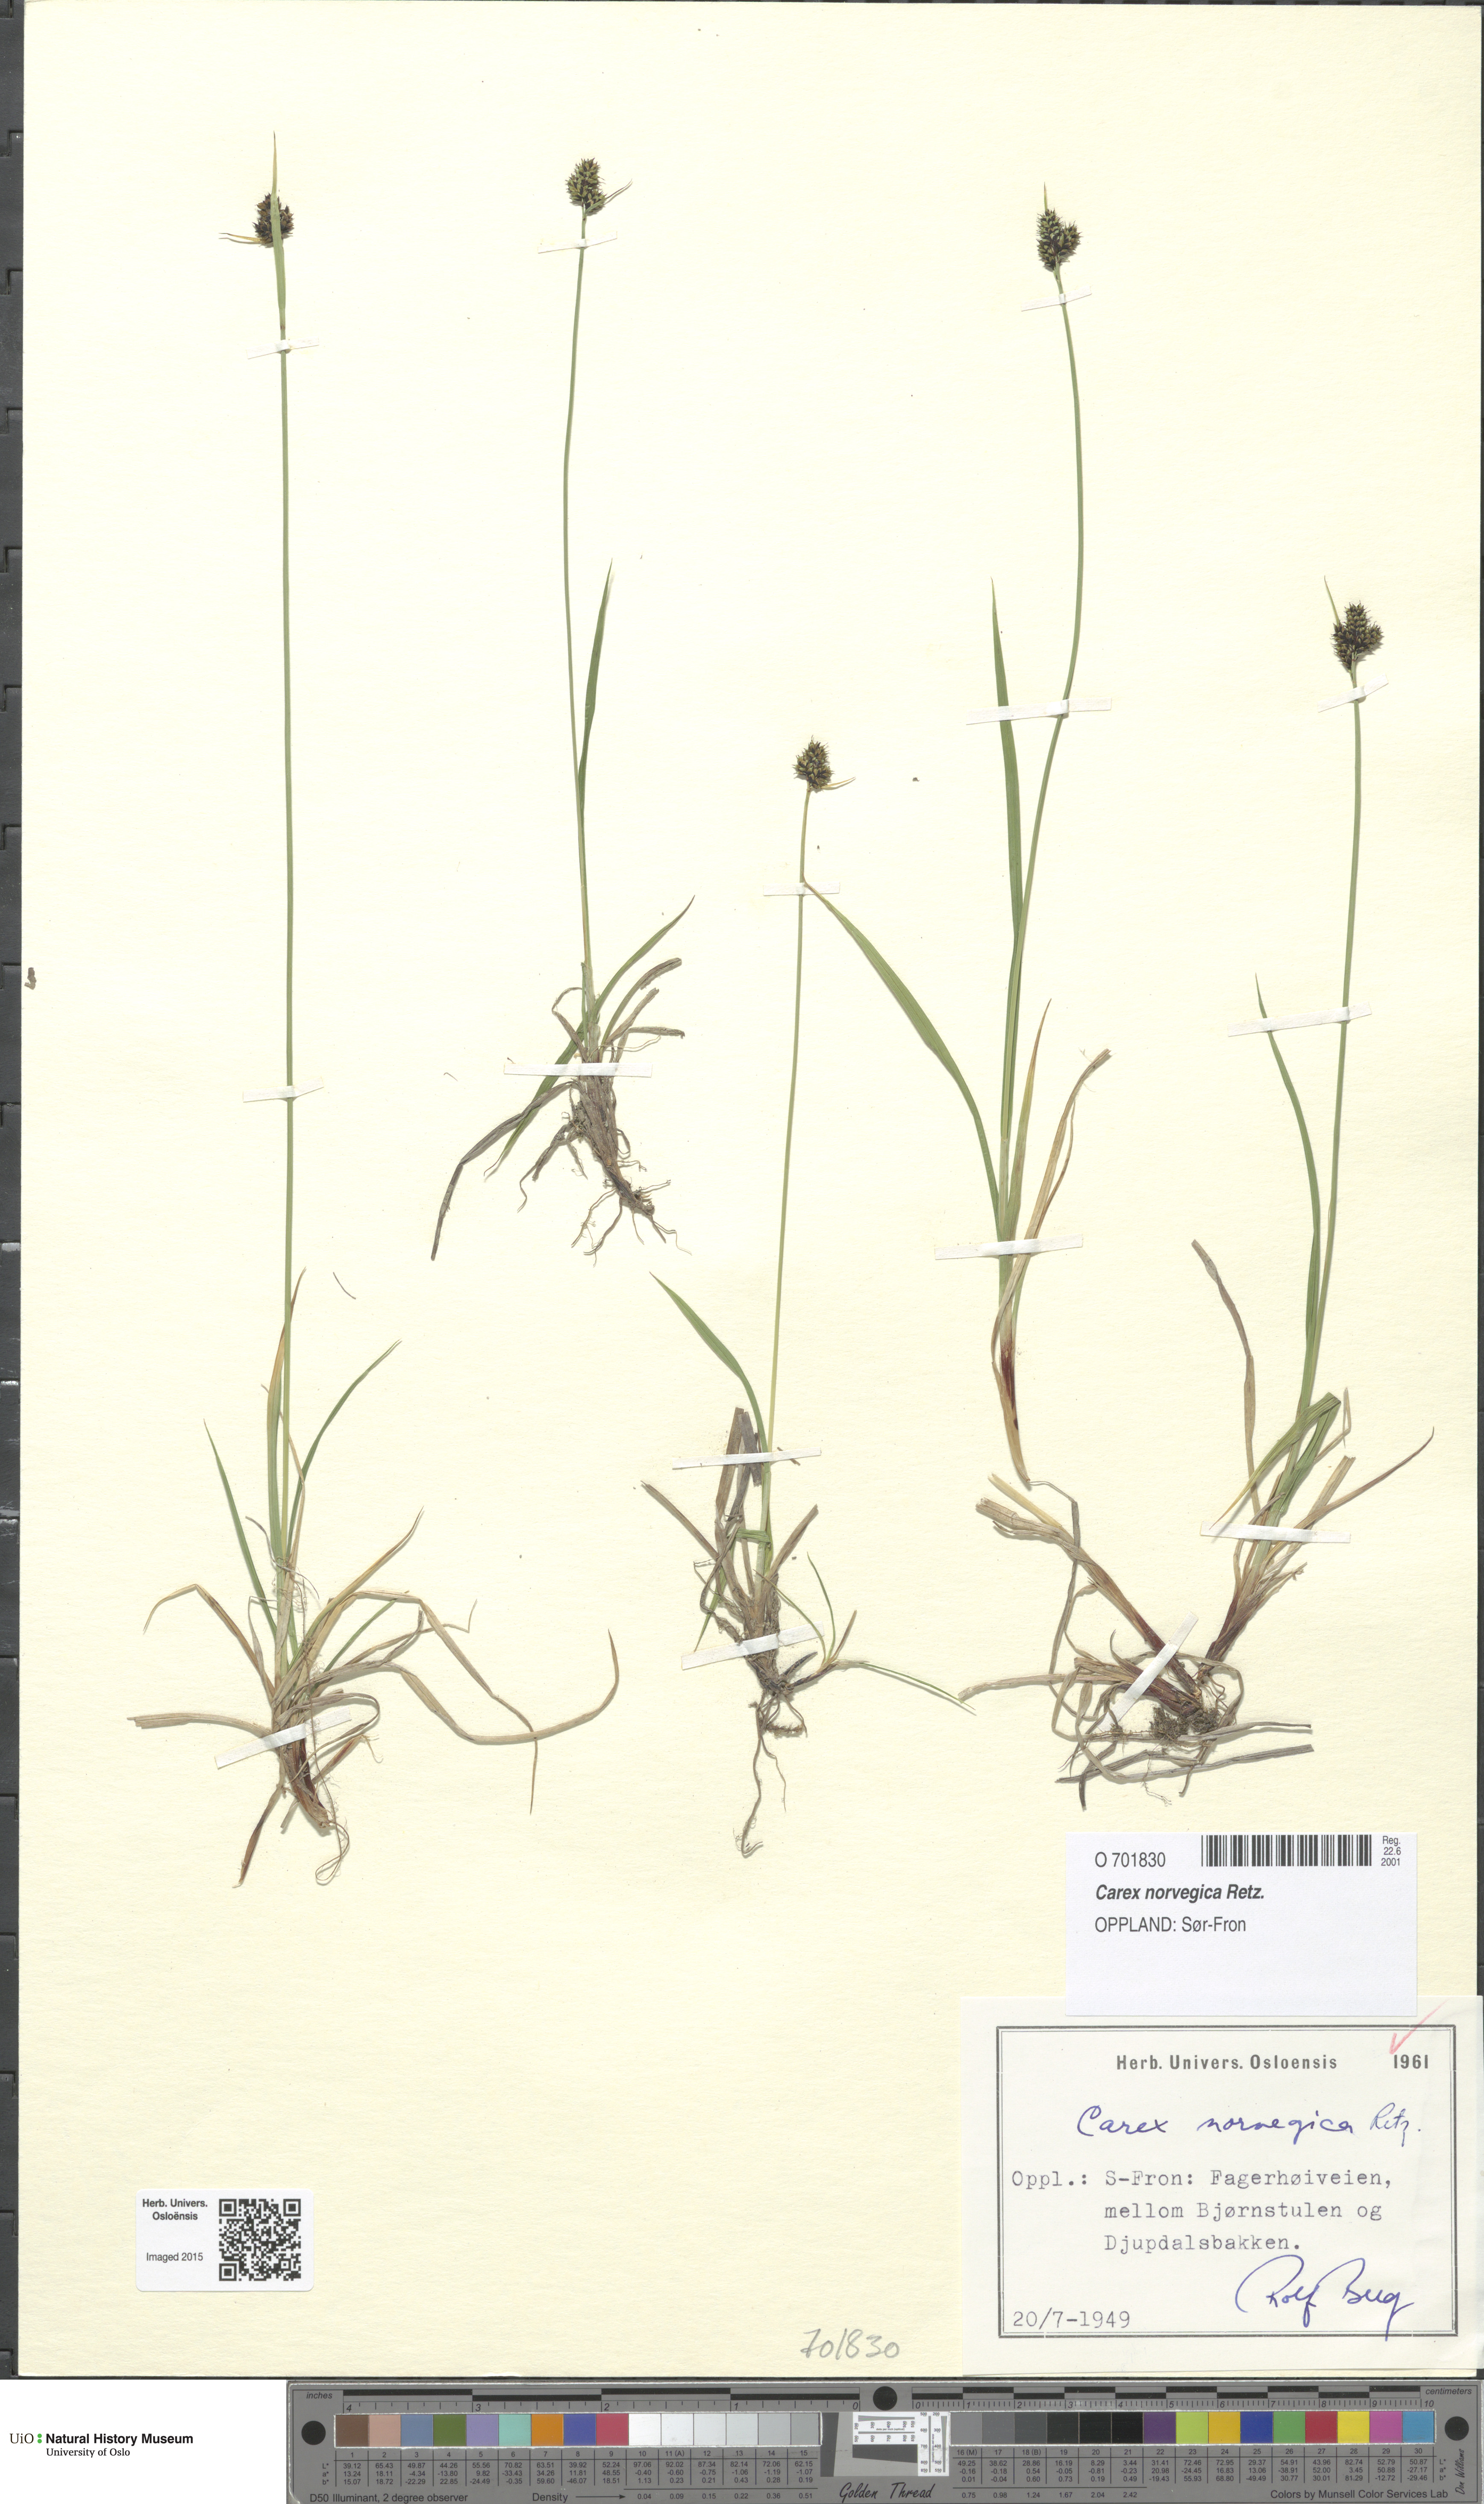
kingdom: Plantae
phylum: Tracheophyta
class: Liliopsida
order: Poales
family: Cyperaceae
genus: Carex
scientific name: Carex norvegica
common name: Close-headed alpine-sedge
